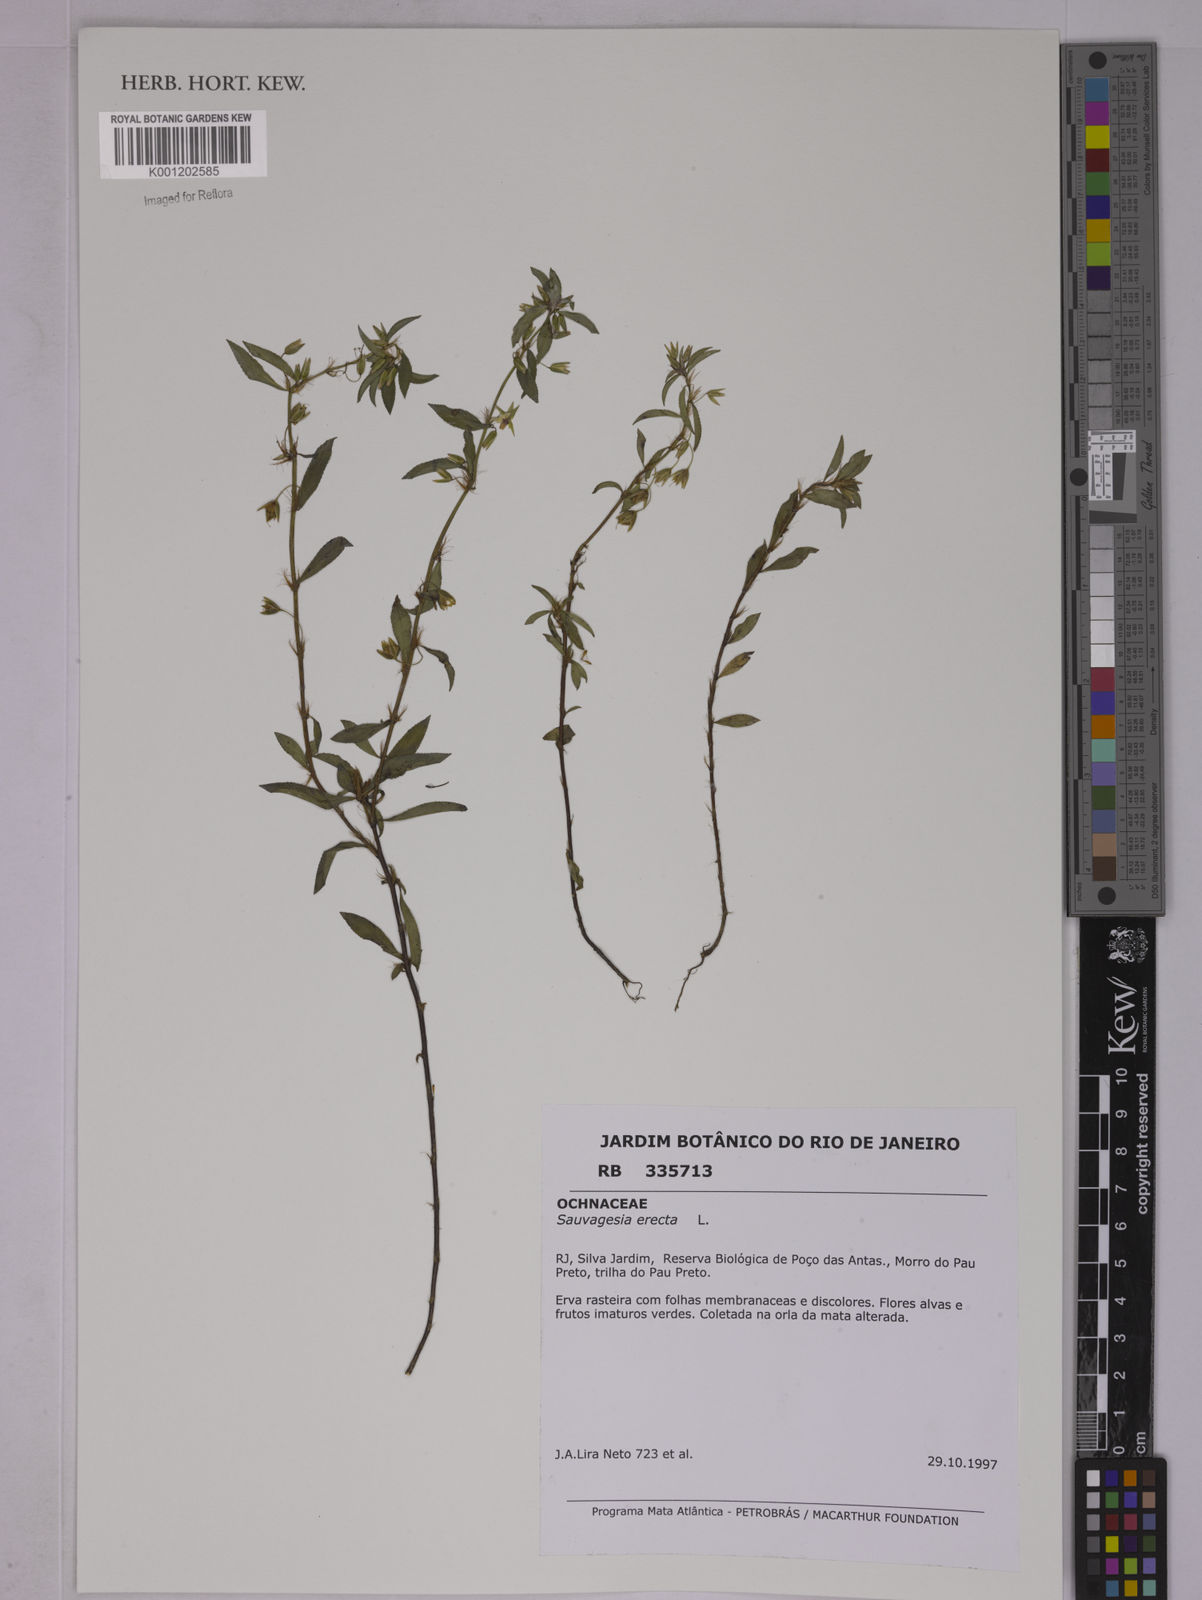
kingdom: Plantae
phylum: Tracheophyta
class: Magnoliopsida
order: Malpighiales
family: Ochnaceae
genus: Sauvagesia
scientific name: Sauvagesia erecta
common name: Creole tea
